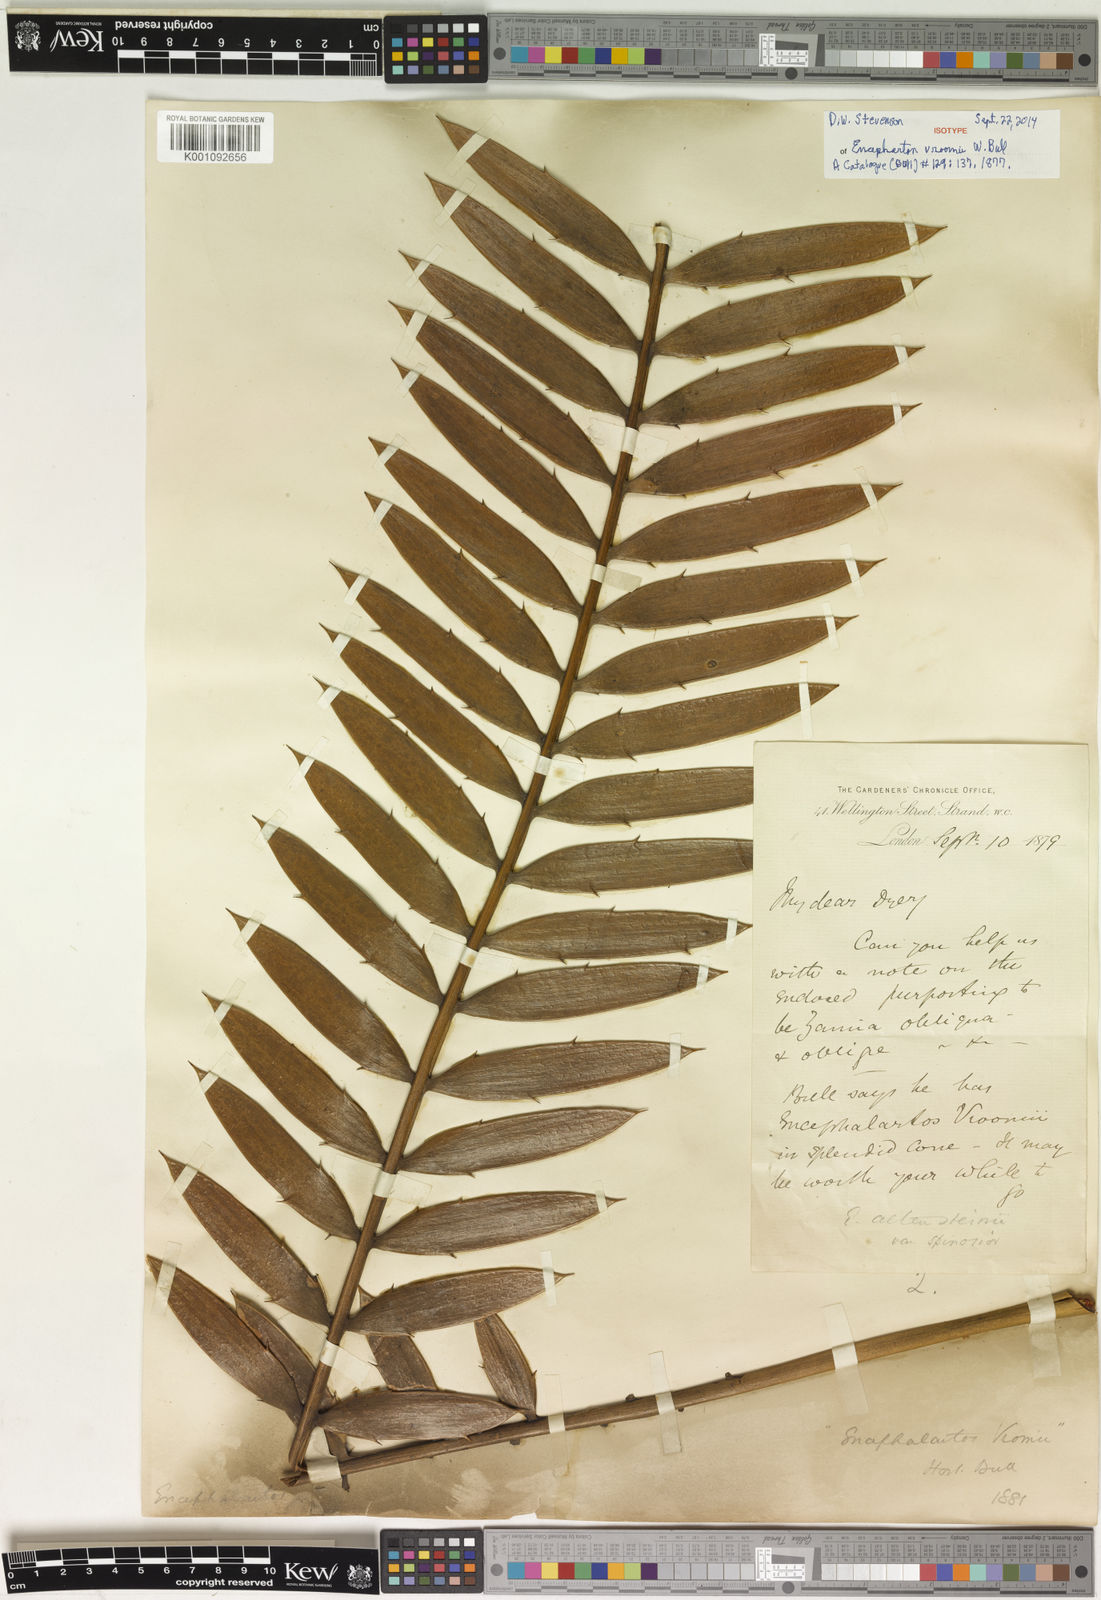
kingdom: Plantae
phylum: Tracheophyta
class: Cycadopsida
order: Cycadales
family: Zamiaceae
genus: Encephalartos
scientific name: Encephalartos
